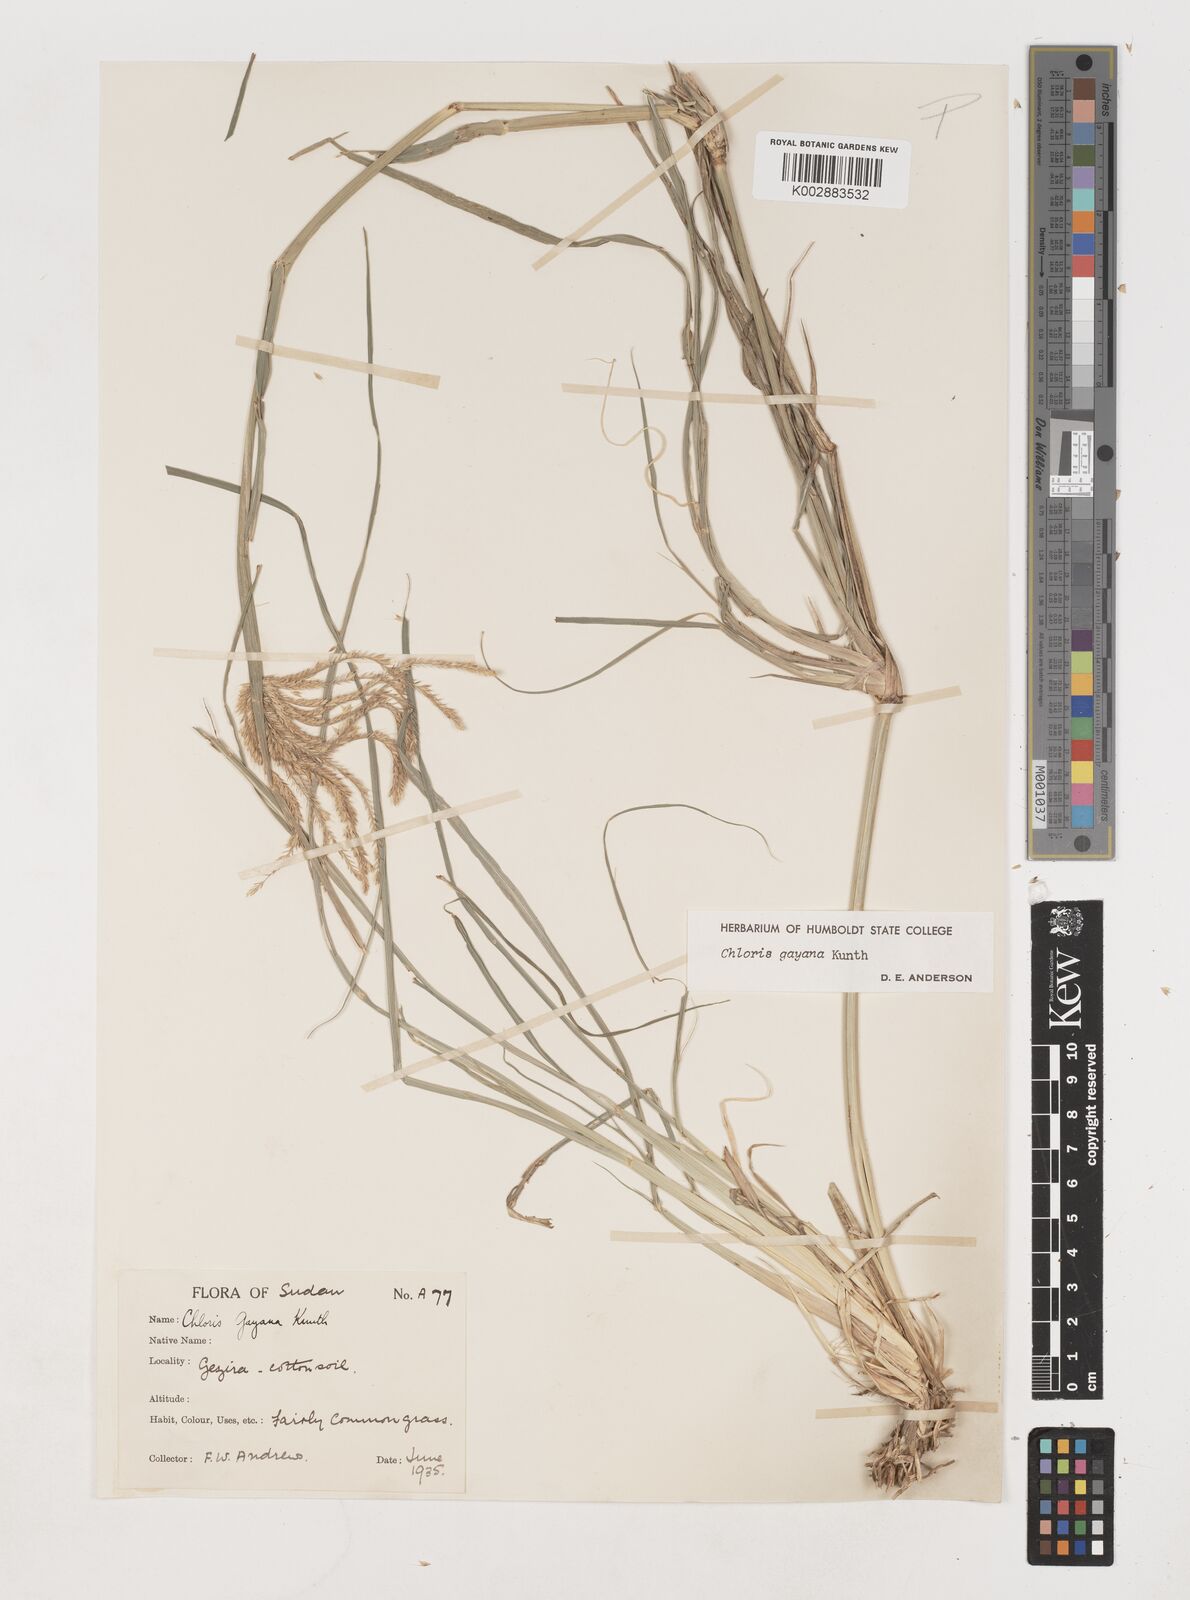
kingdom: Plantae
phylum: Tracheophyta
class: Liliopsida
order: Poales
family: Poaceae
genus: Chloris
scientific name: Chloris gayana
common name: Rhodes grass
